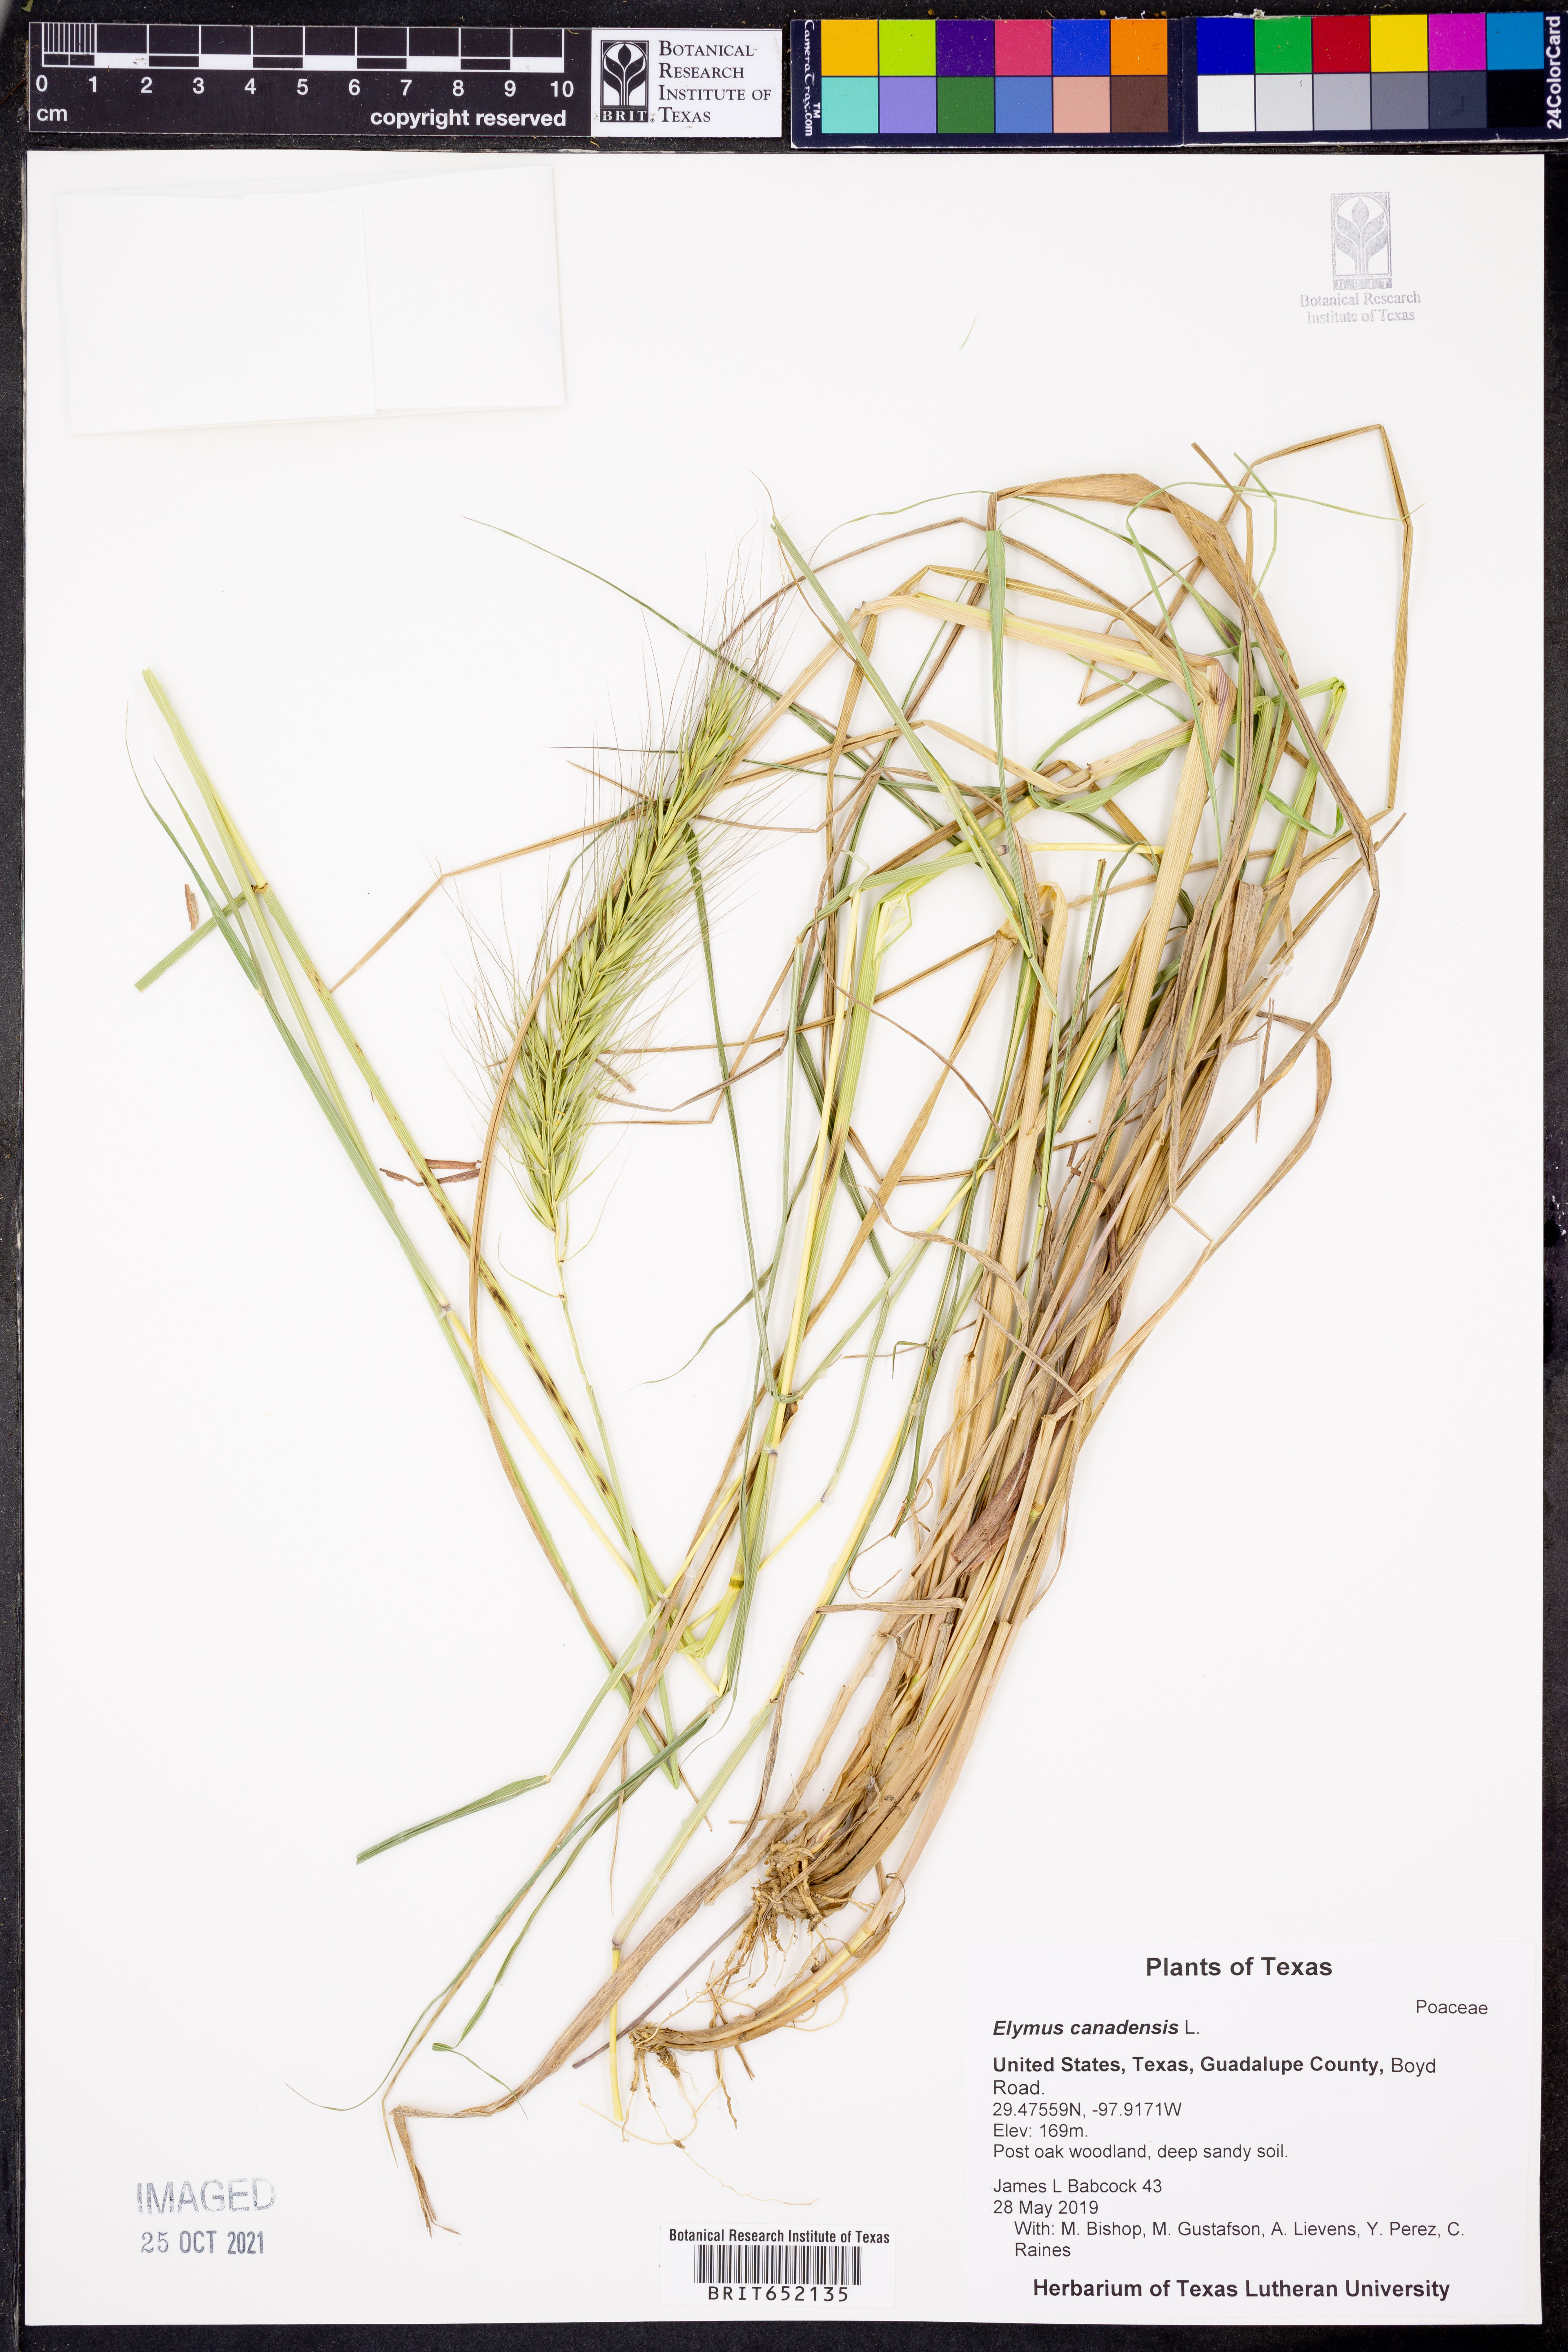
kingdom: Plantae
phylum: Tracheophyta
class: Liliopsida
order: Poales
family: Poaceae
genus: Elymus
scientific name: Elymus canadensis
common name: Canada wild rye
